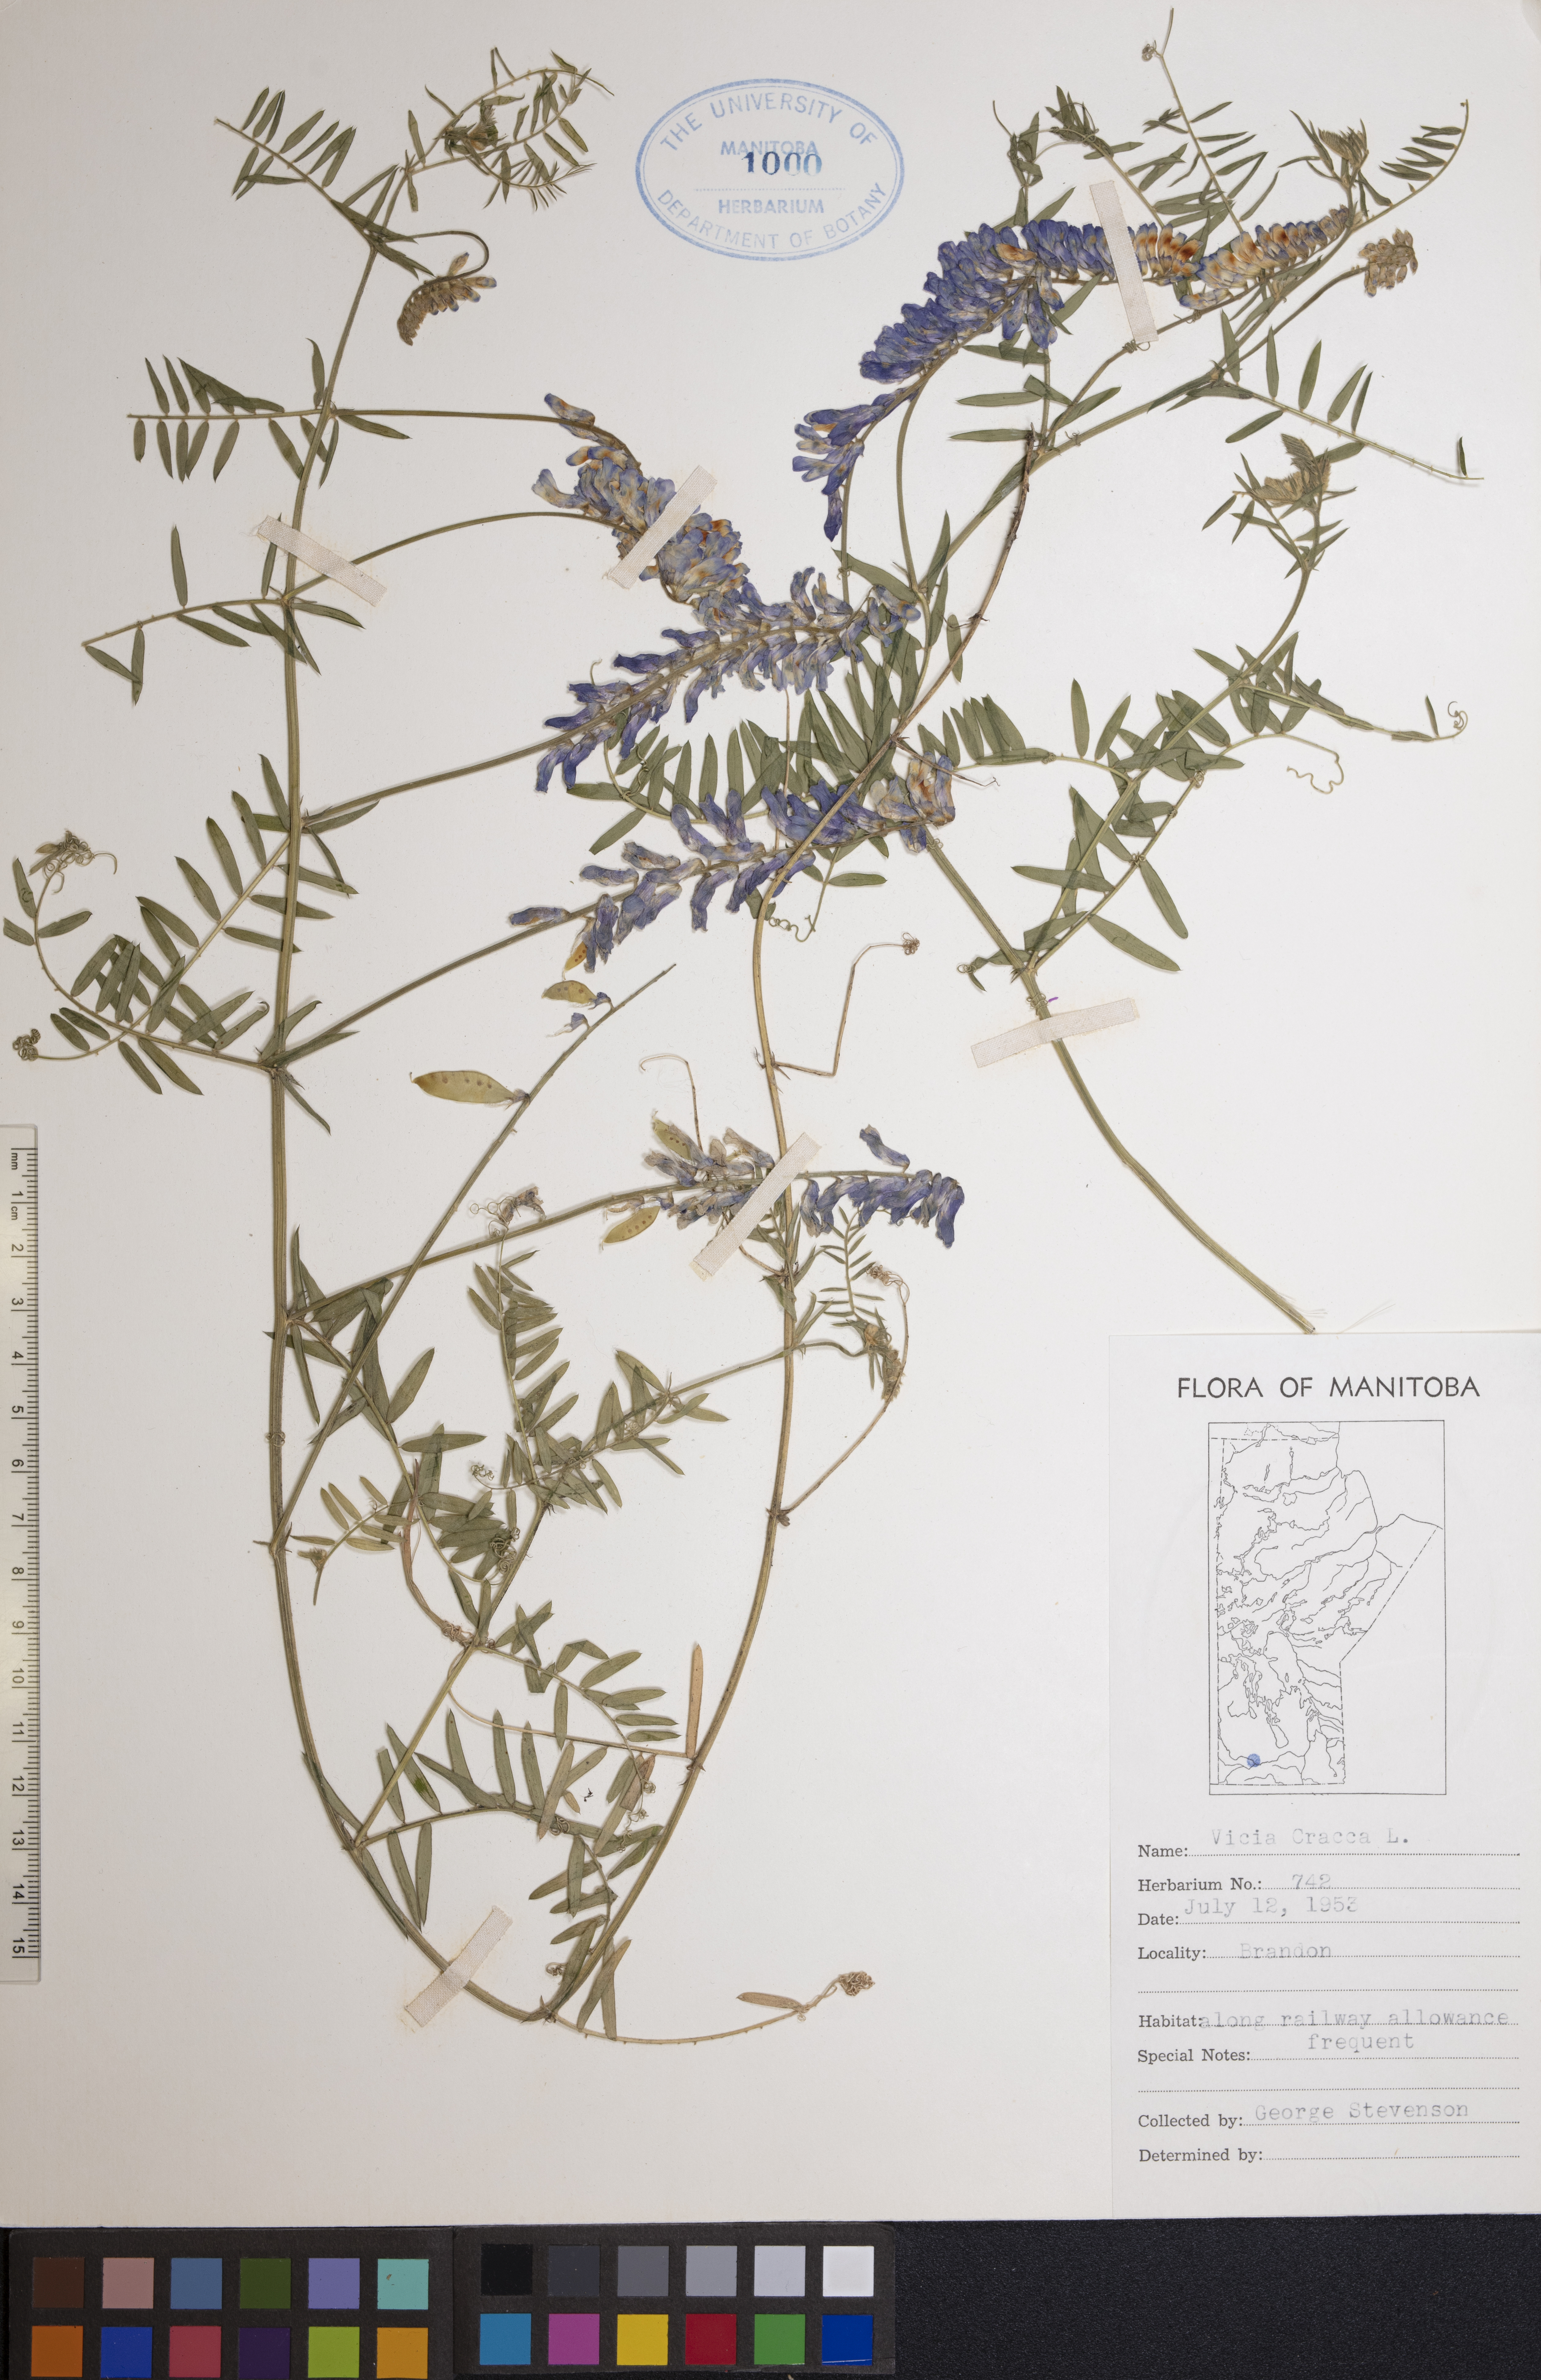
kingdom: Plantae
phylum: Tracheophyta
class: Magnoliopsida
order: Fabales
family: Fabaceae
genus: Vicia
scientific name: Vicia cracca
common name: Bird vetch
